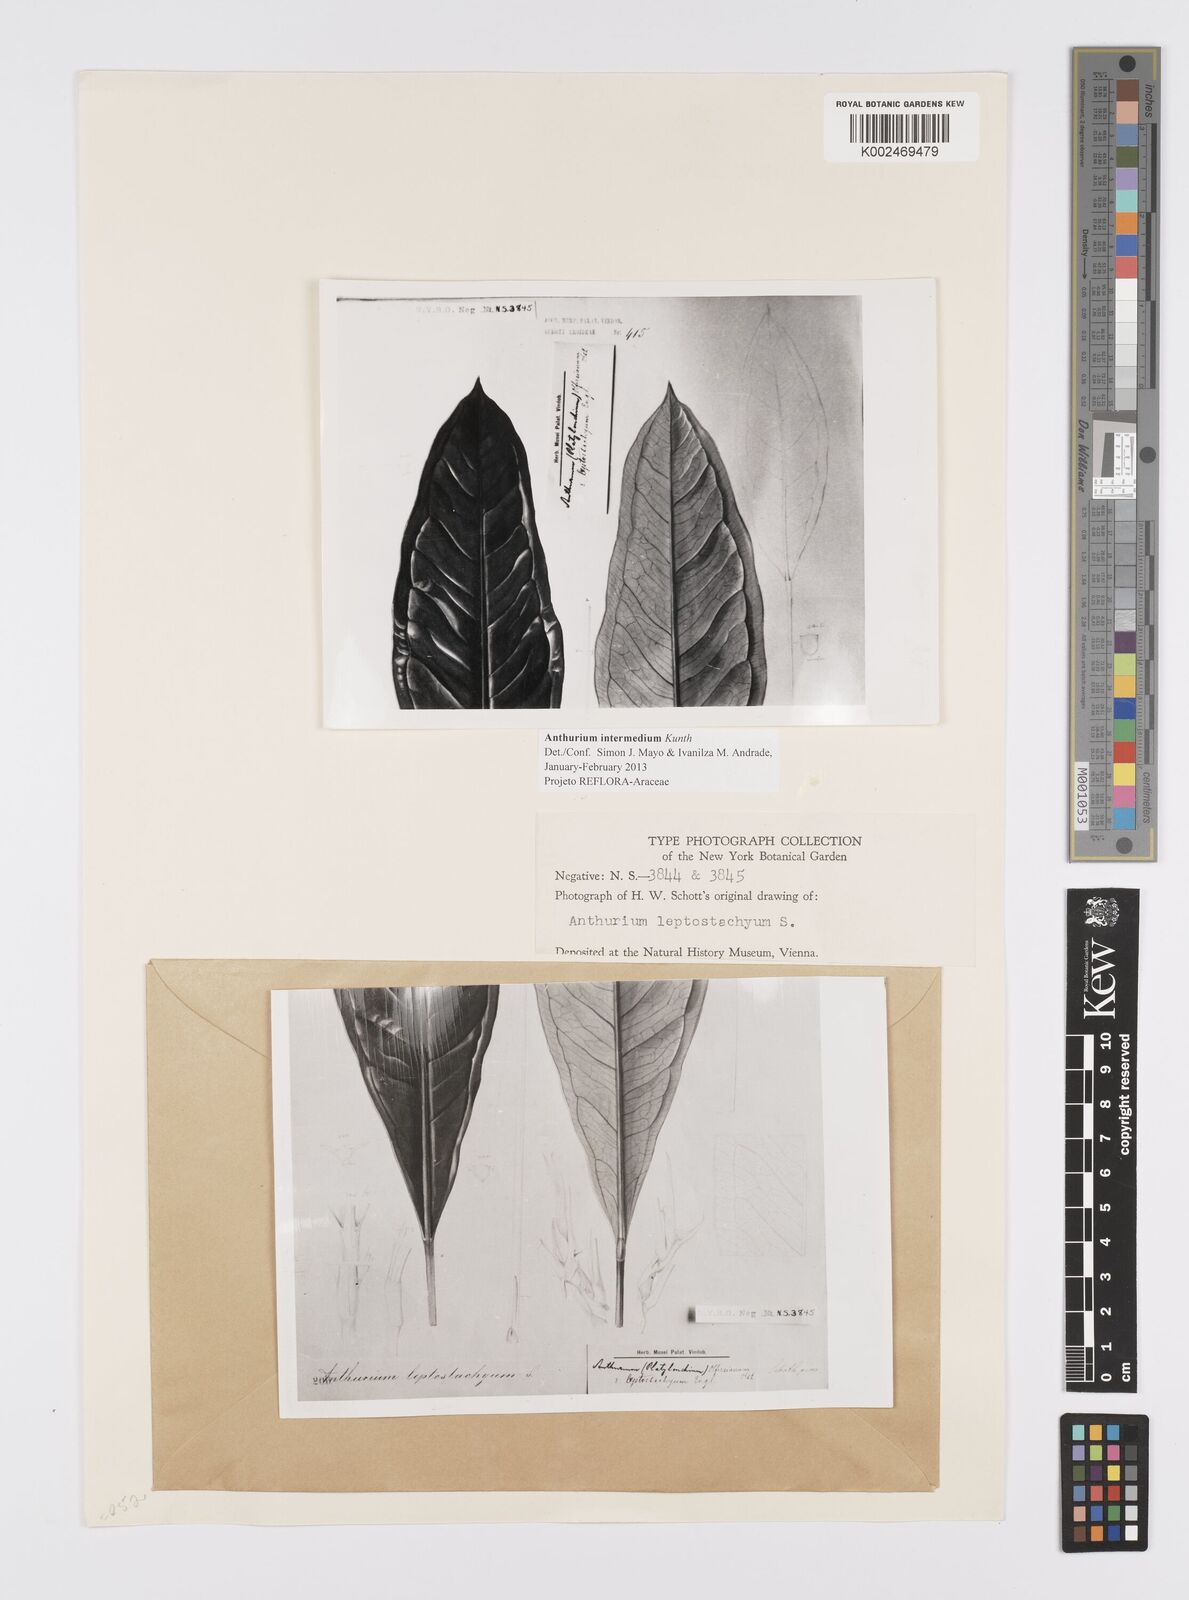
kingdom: Plantae
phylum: Tracheophyta
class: Liliopsida
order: Alismatales
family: Araceae
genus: Anthurium
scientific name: Anthurium intermedium
